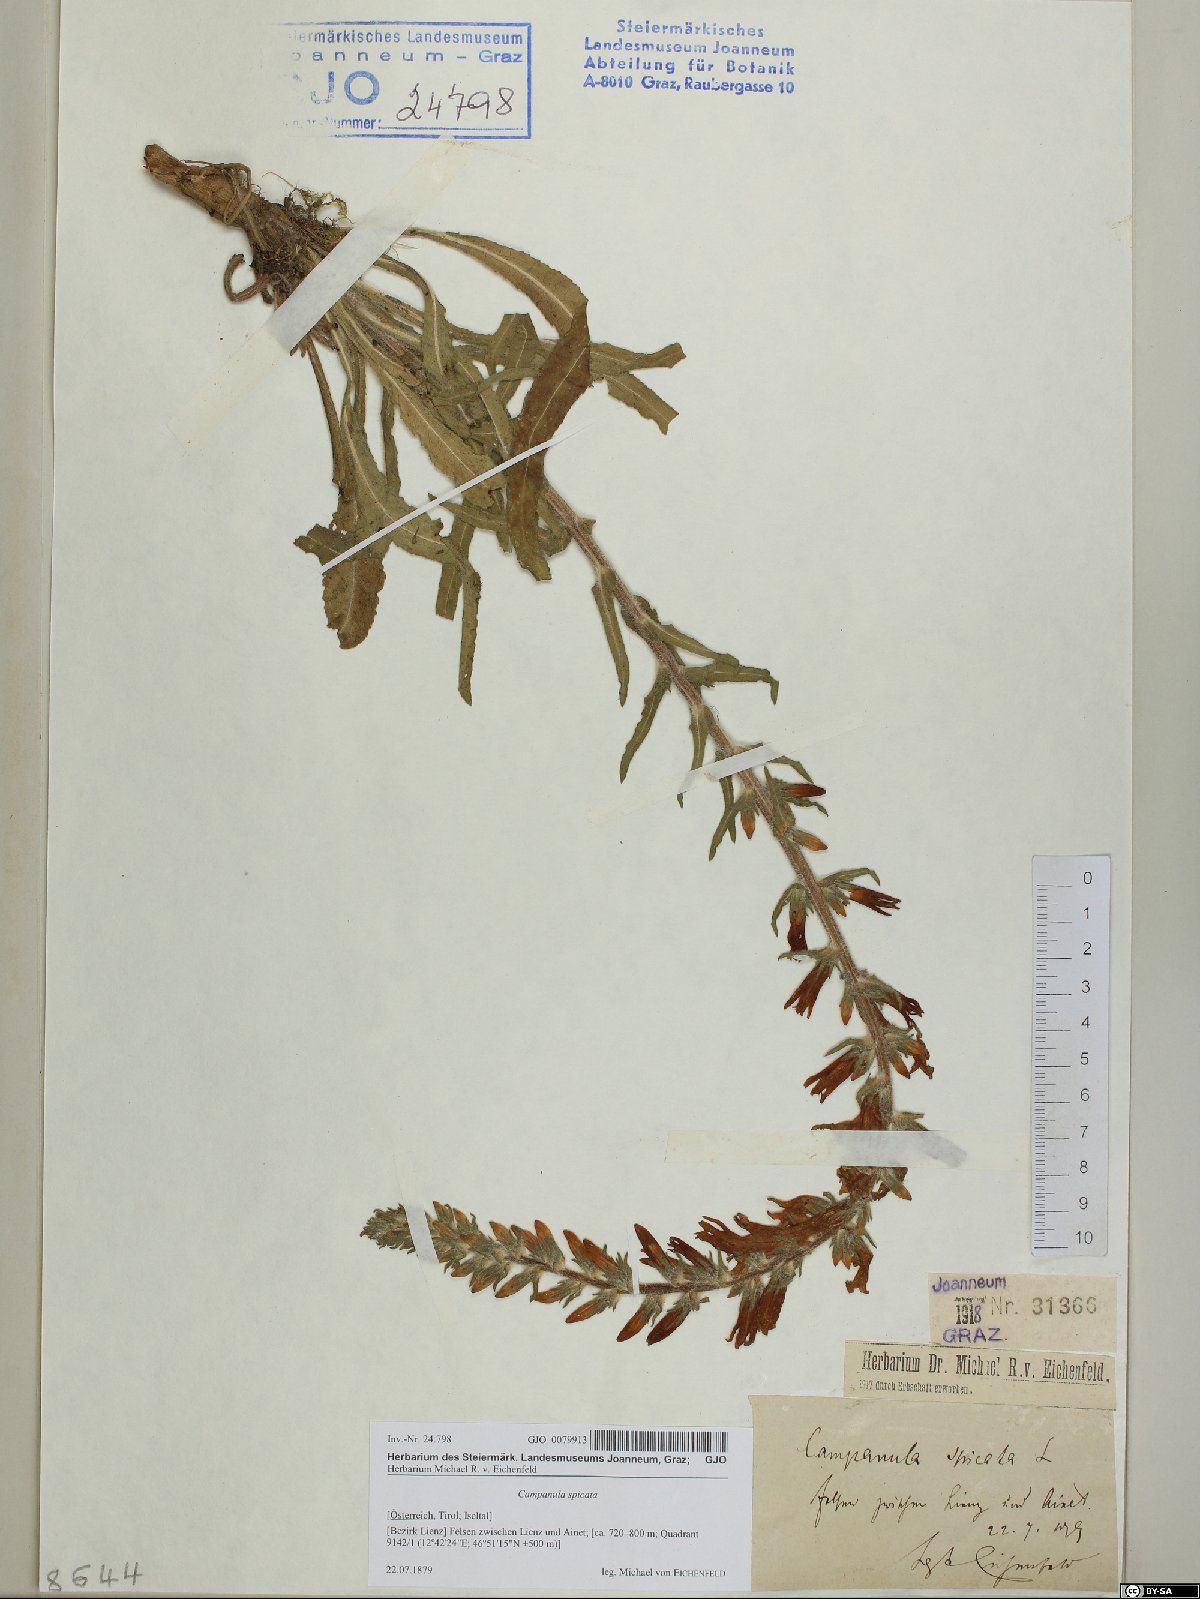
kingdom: Plantae
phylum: Tracheophyta
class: Magnoliopsida
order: Asterales
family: Campanulaceae
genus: Campanula
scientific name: Campanula spicata
